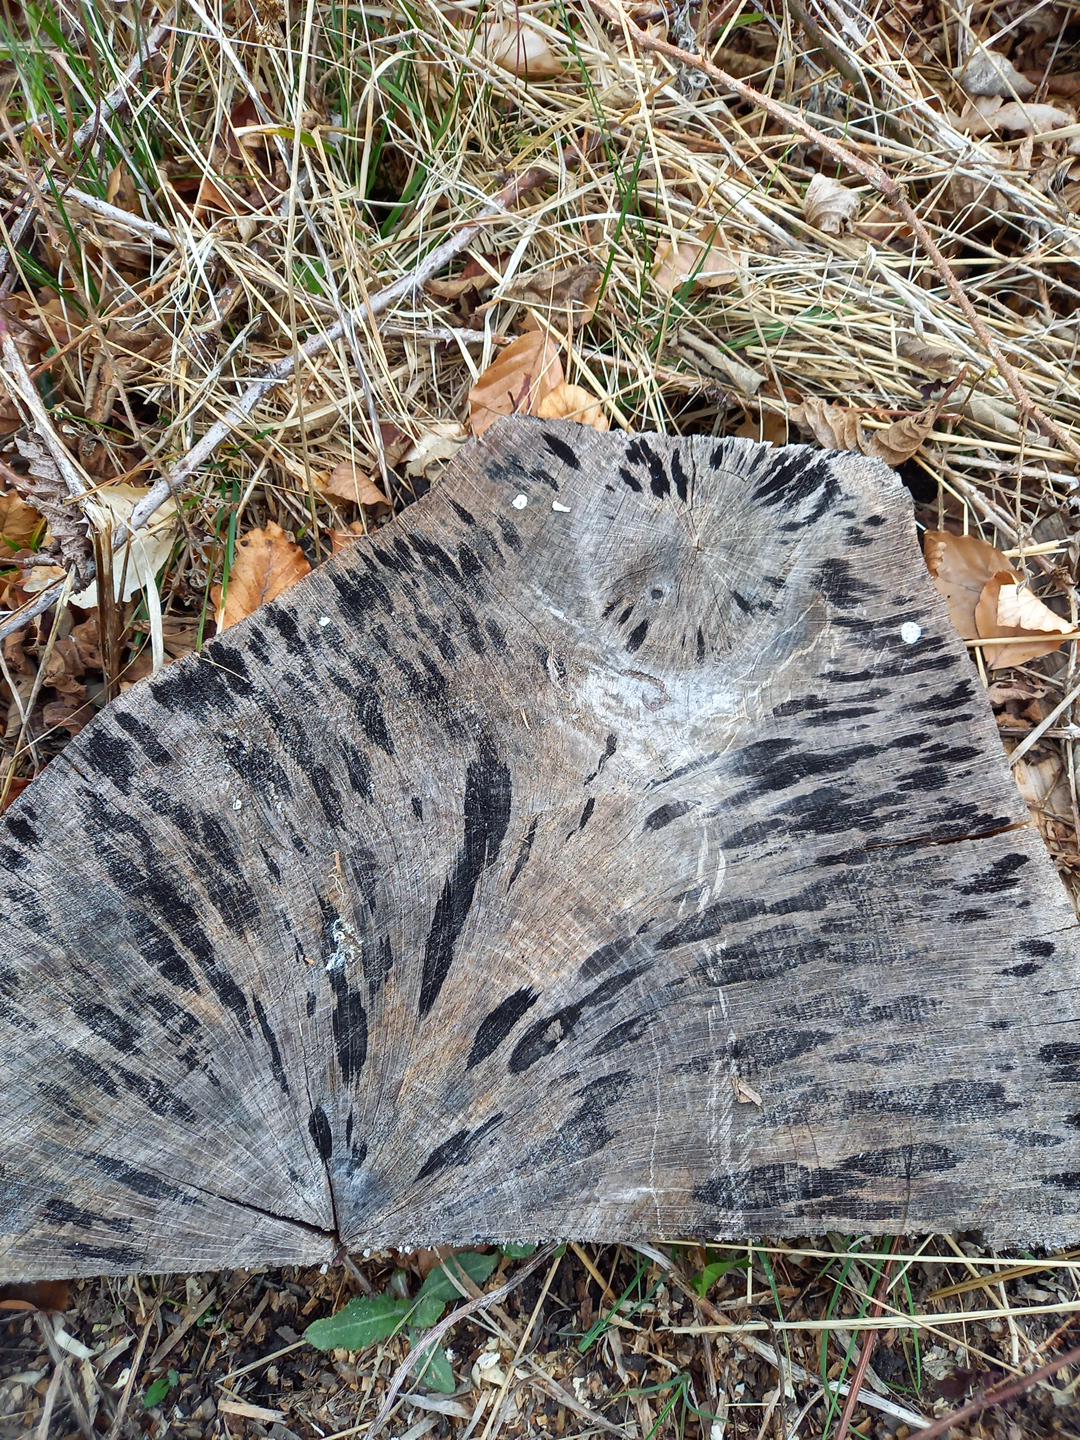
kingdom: Fungi
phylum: Ascomycota
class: Leotiomycetes
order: Helotiales
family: Helotiaceae
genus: Bispora
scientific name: Bispora pallescens
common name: måtte-snitskive
